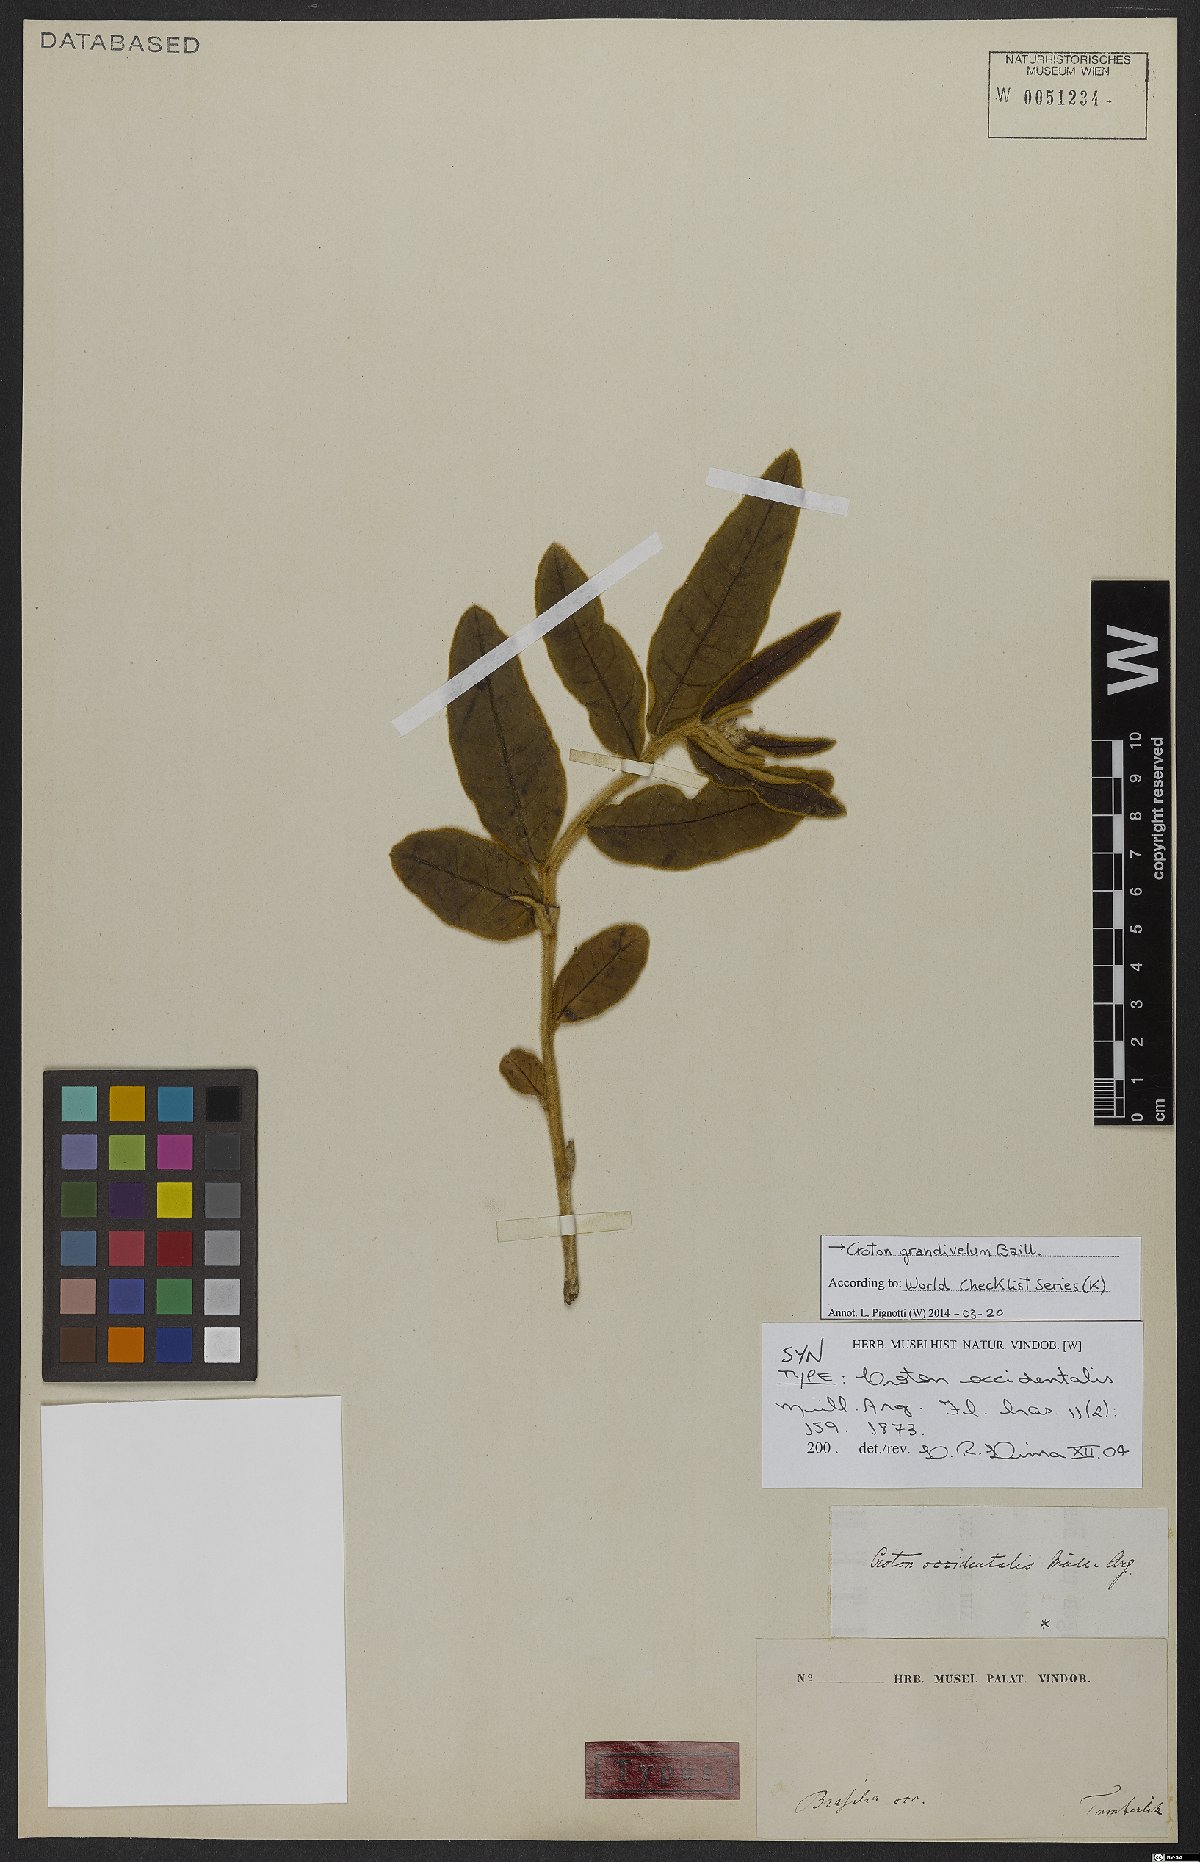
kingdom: Plantae
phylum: Tracheophyta
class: Magnoliopsida
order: Malpighiales
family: Euphorbiaceae
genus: Croton
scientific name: Croton grandivelum
